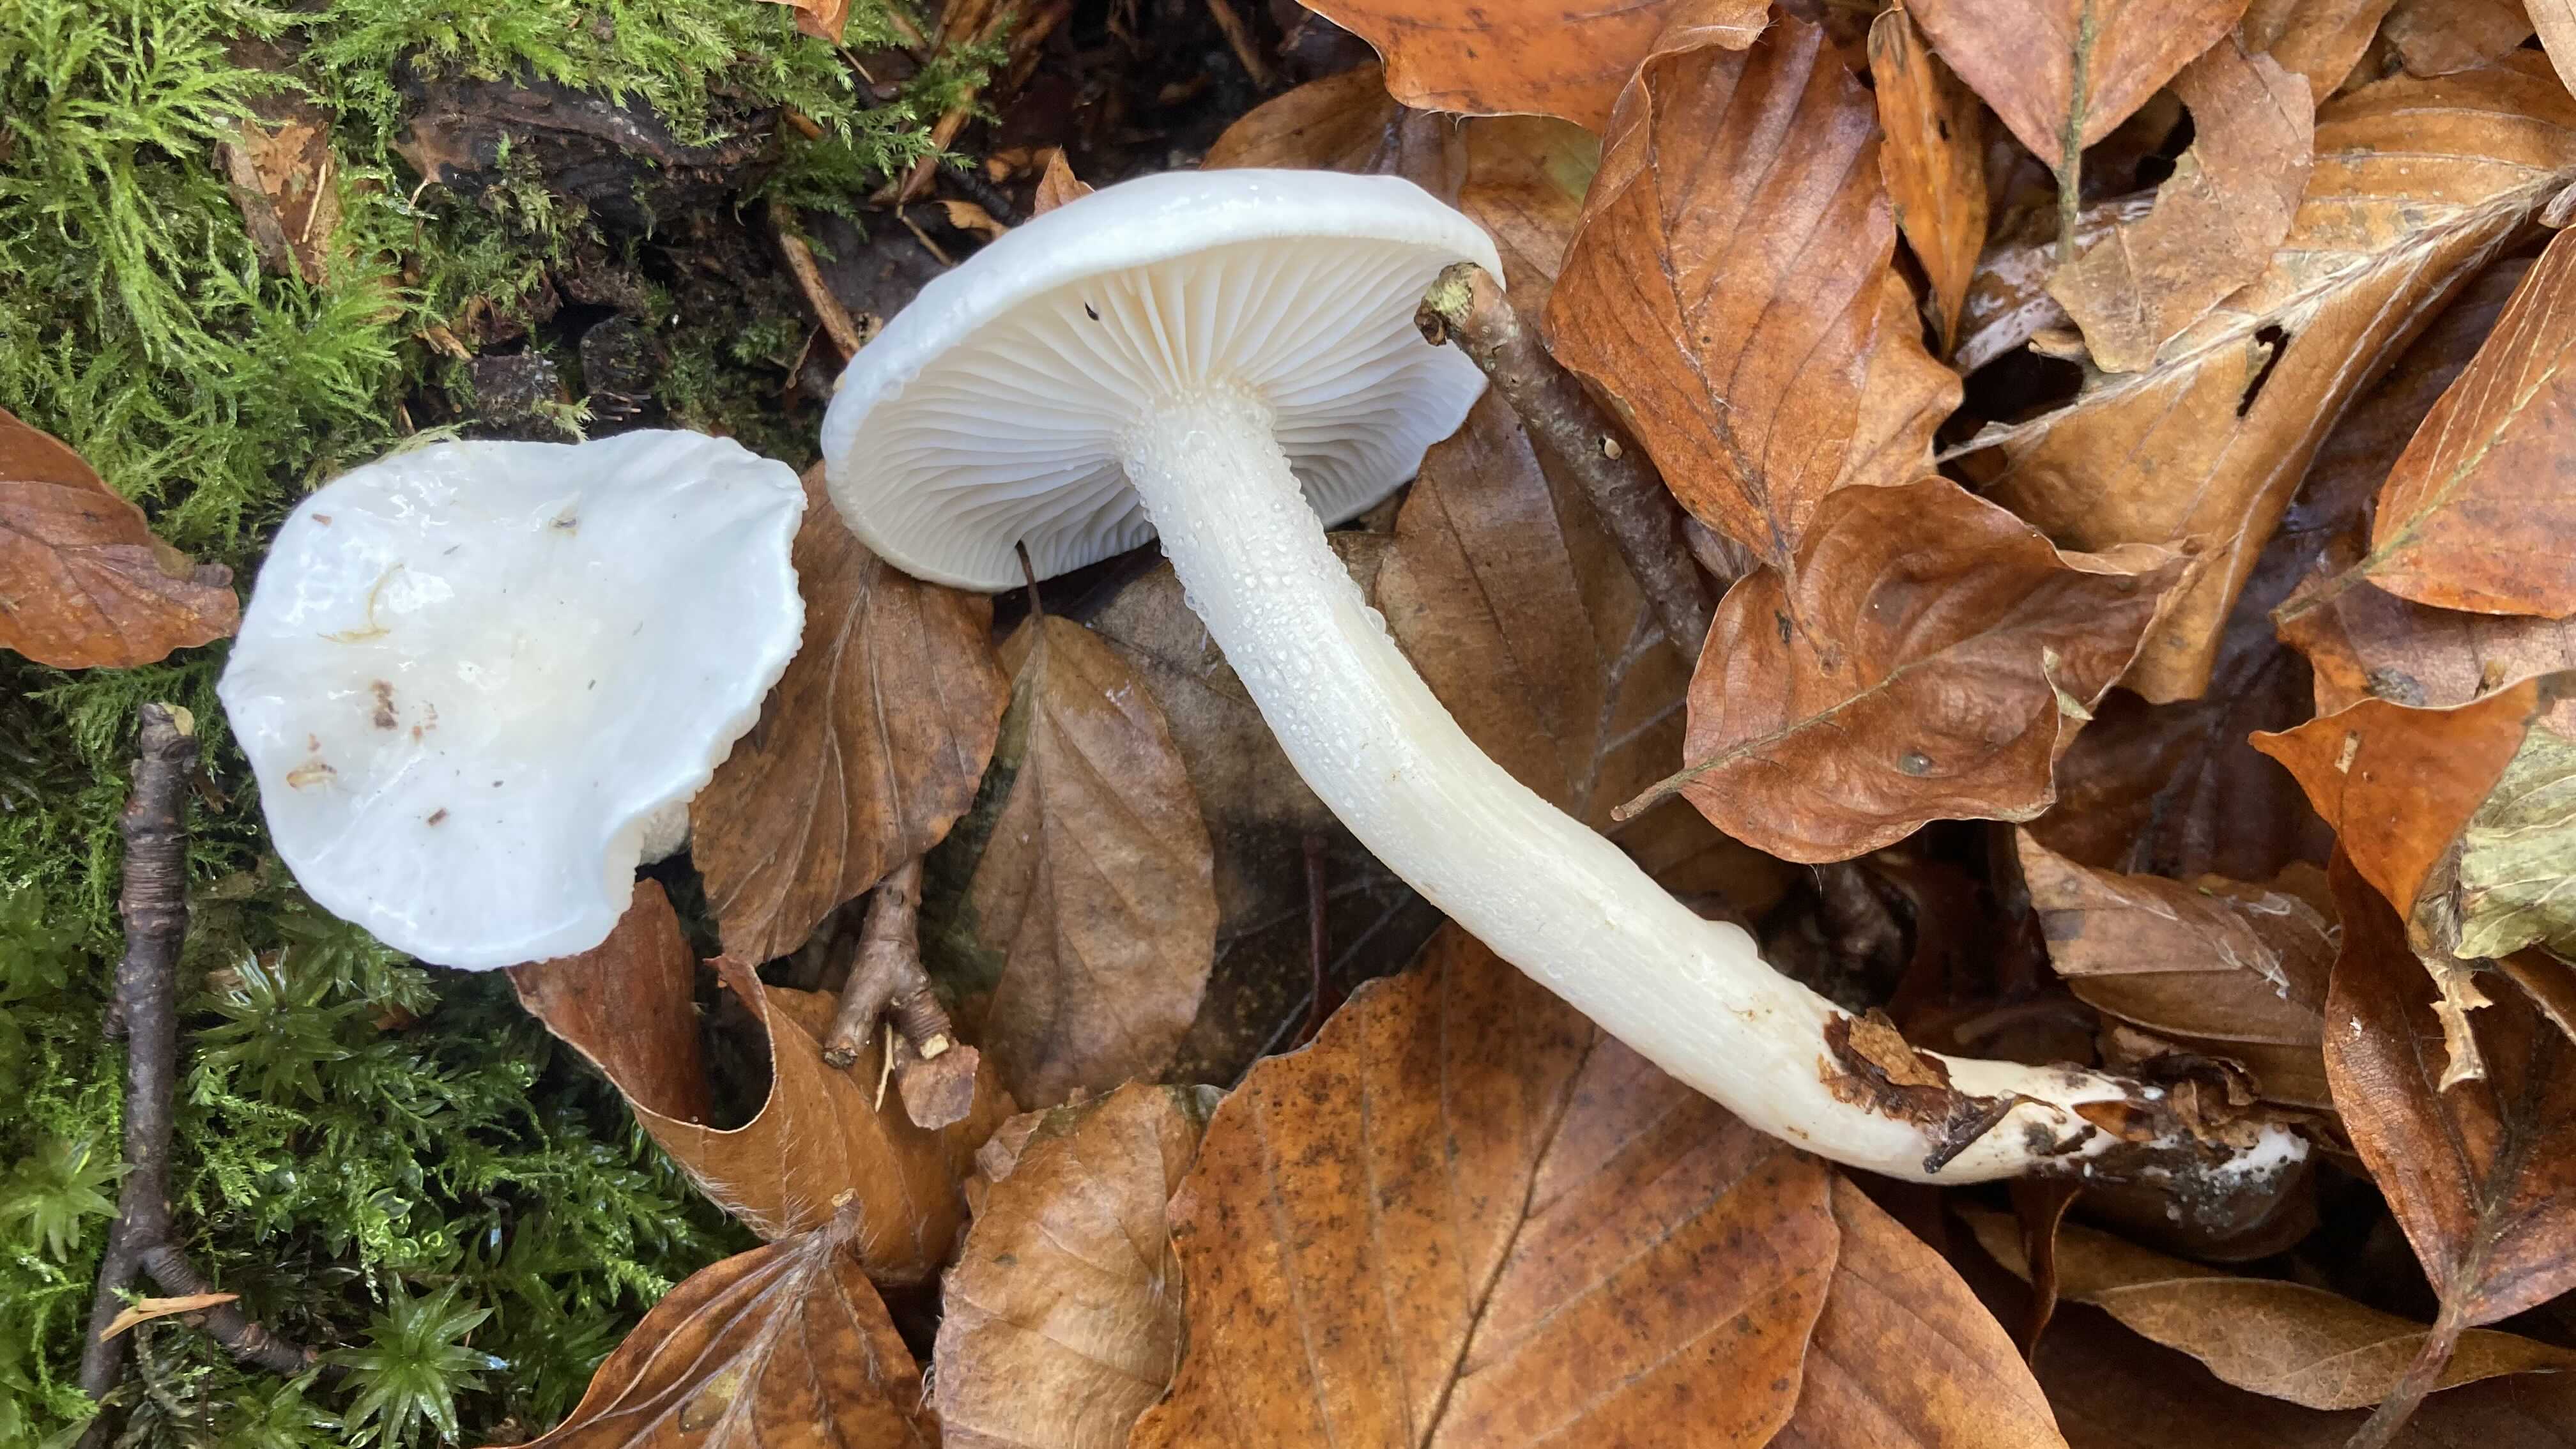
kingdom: Fungi
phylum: Basidiomycota
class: Agaricomycetes
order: Agaricales
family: Hygrophoraceae
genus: Hygrophorus
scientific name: Hygrophorus eburneus
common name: elfenbens-sneglehat
